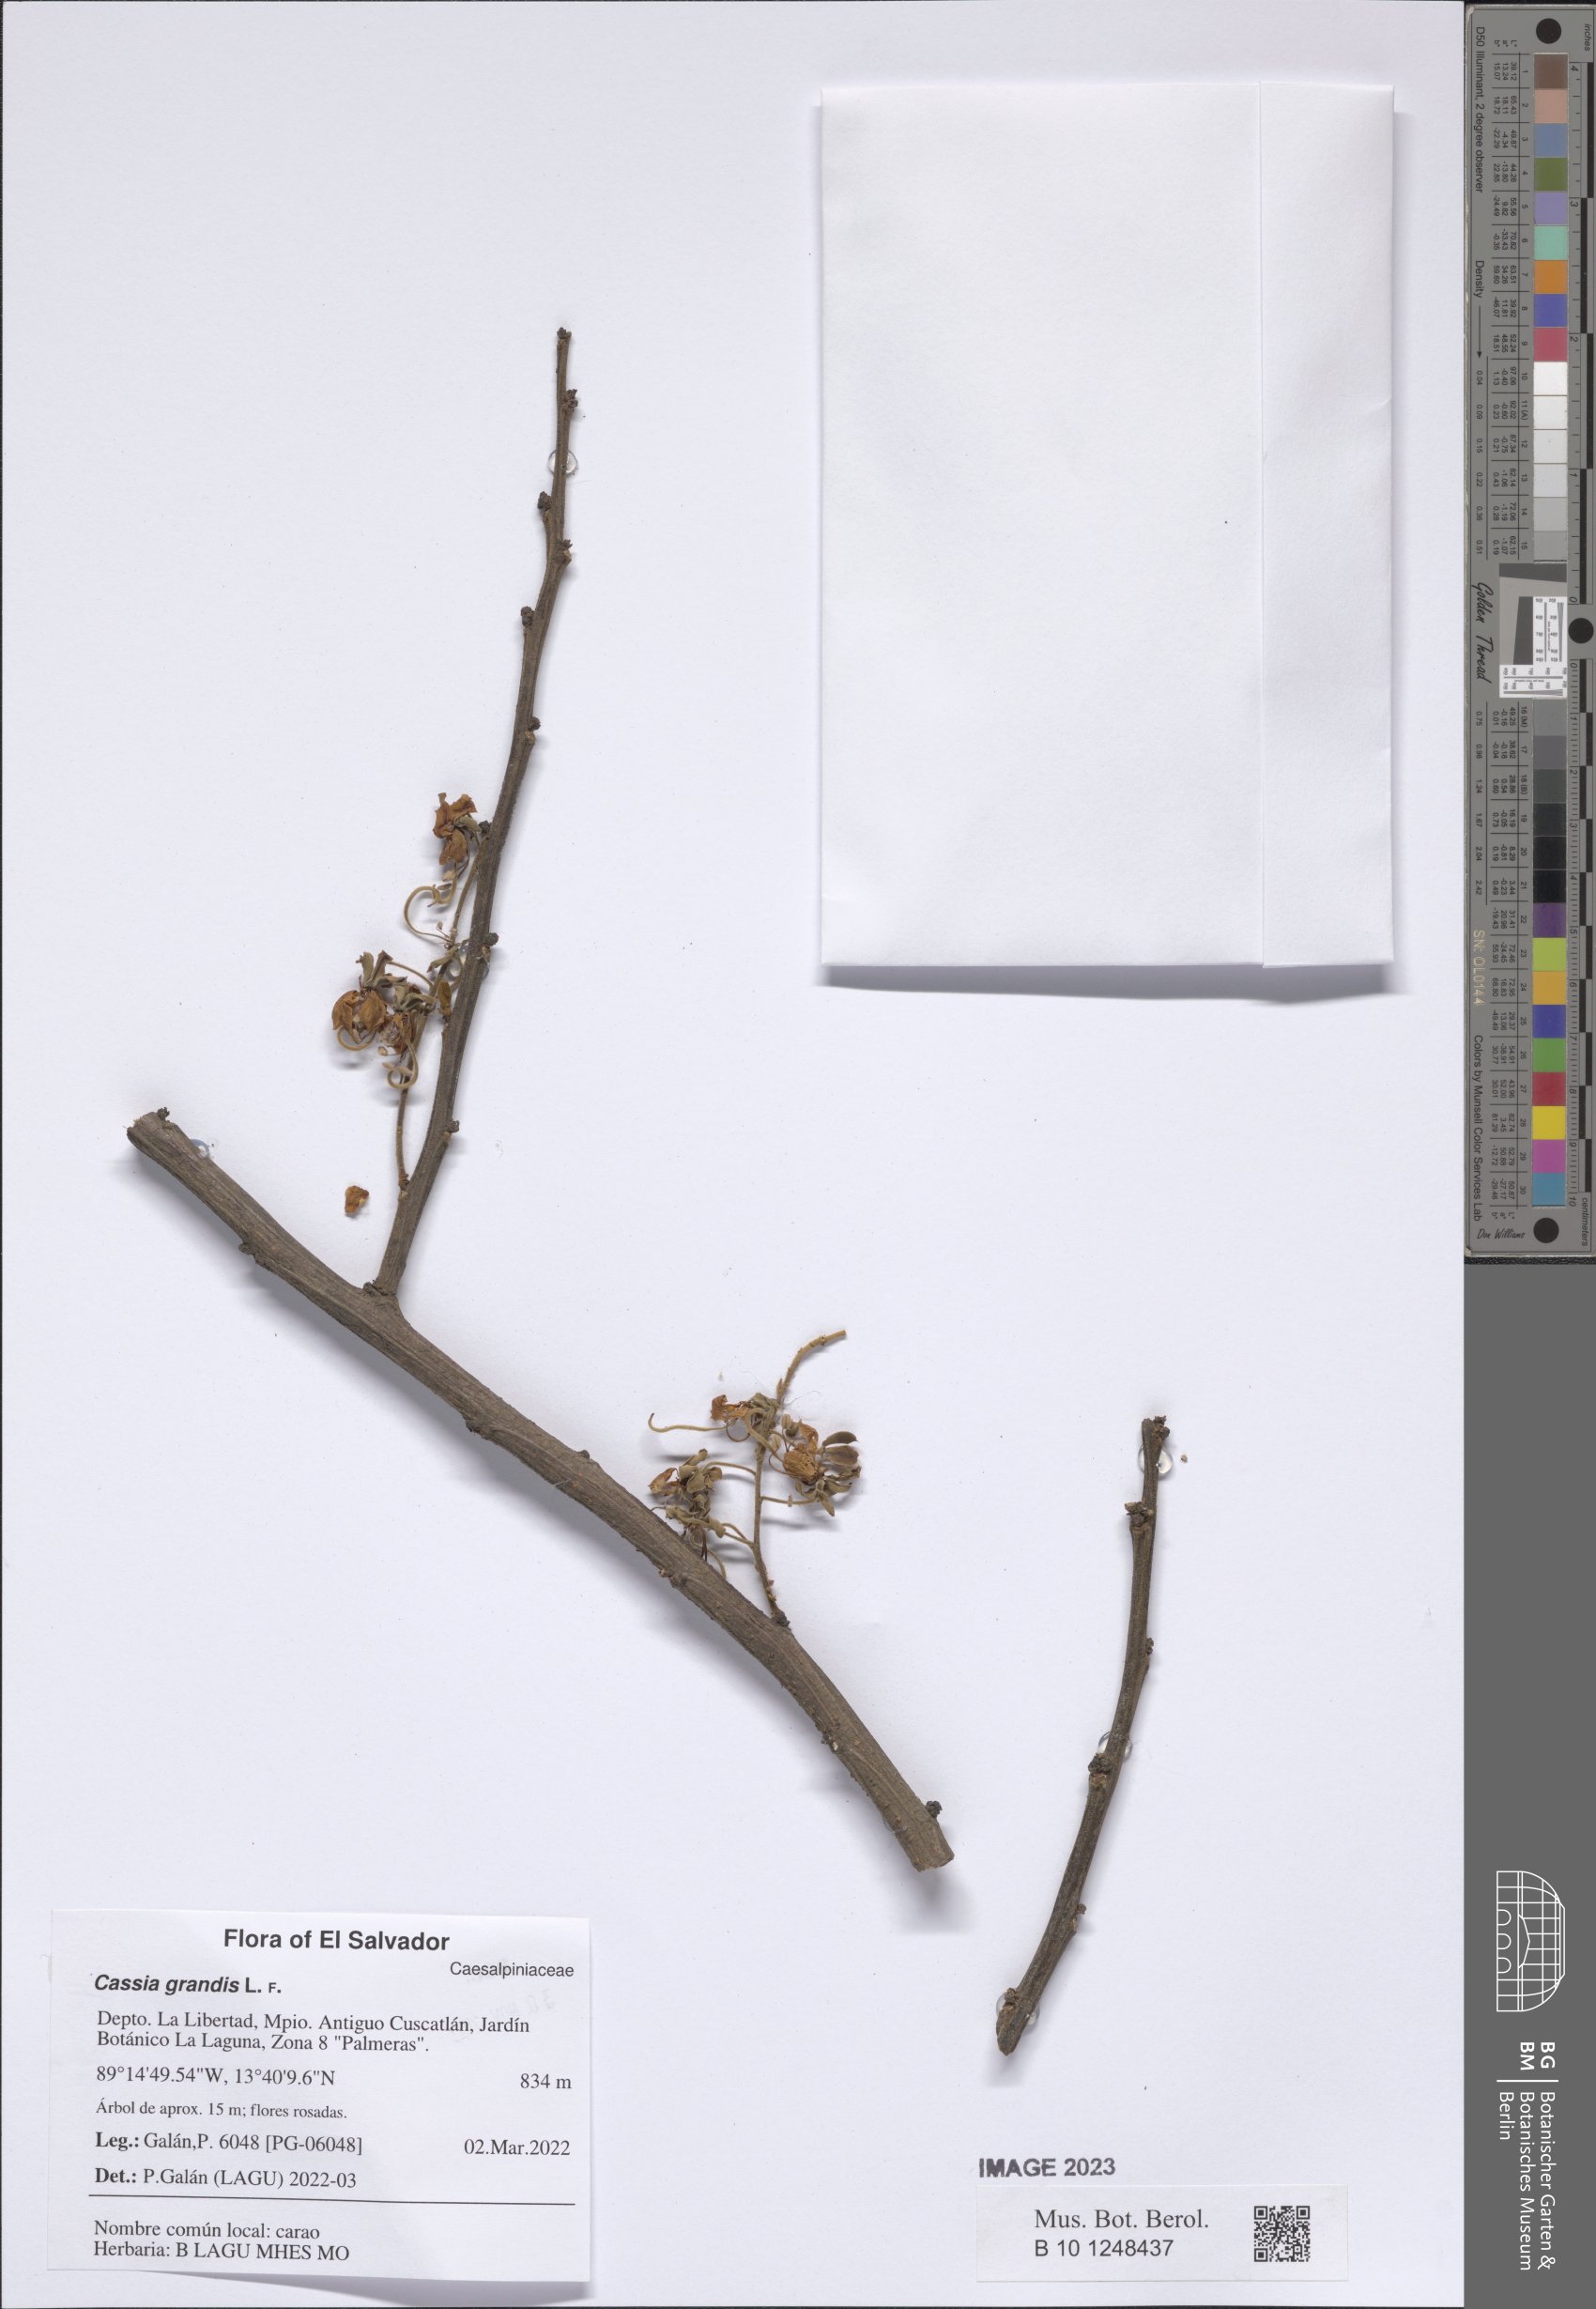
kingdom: Plantae
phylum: Tracheophyta
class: Magnoliopsida
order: Fabales
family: Fabaceae
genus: Cassia
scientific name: Cassia grandis
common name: Appleblossom cassia
